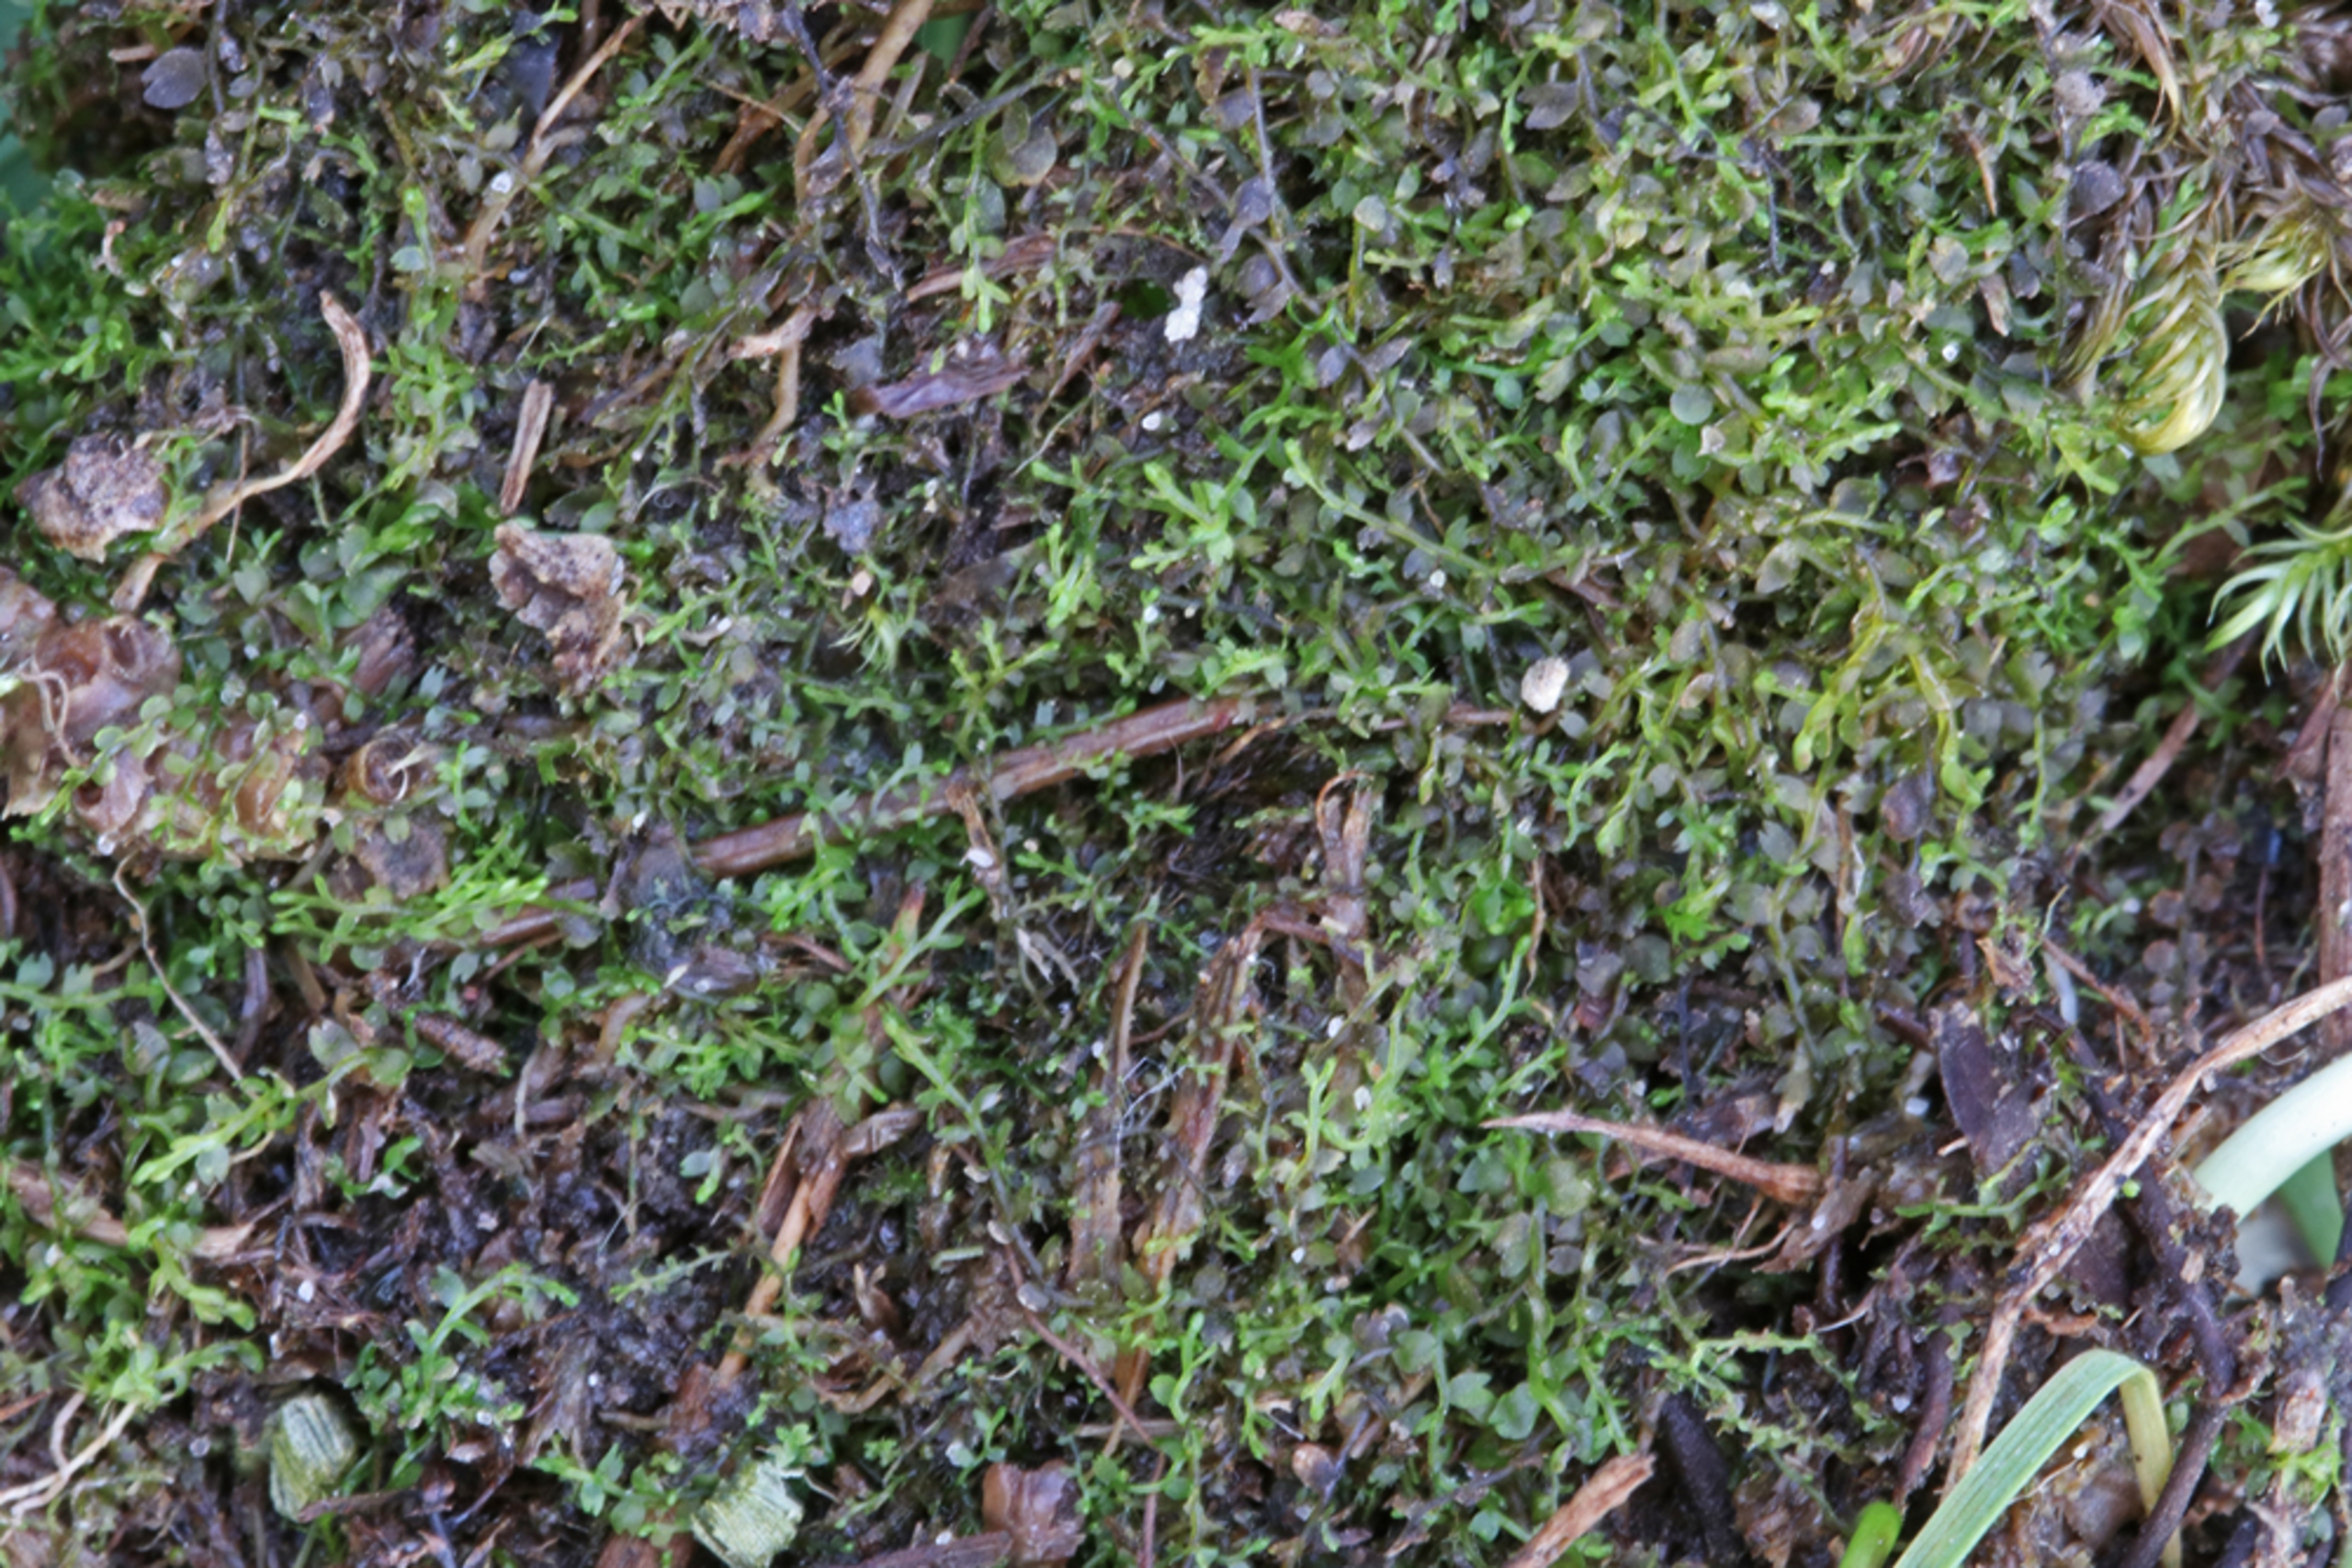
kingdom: Plantae
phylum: Marchantiophyta
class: Jungermanniopsida
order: Jungermanniales
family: Cephaloziaceae
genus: Odontoschisma
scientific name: Odontoschisma fluitans
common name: Tørve-vævmos
